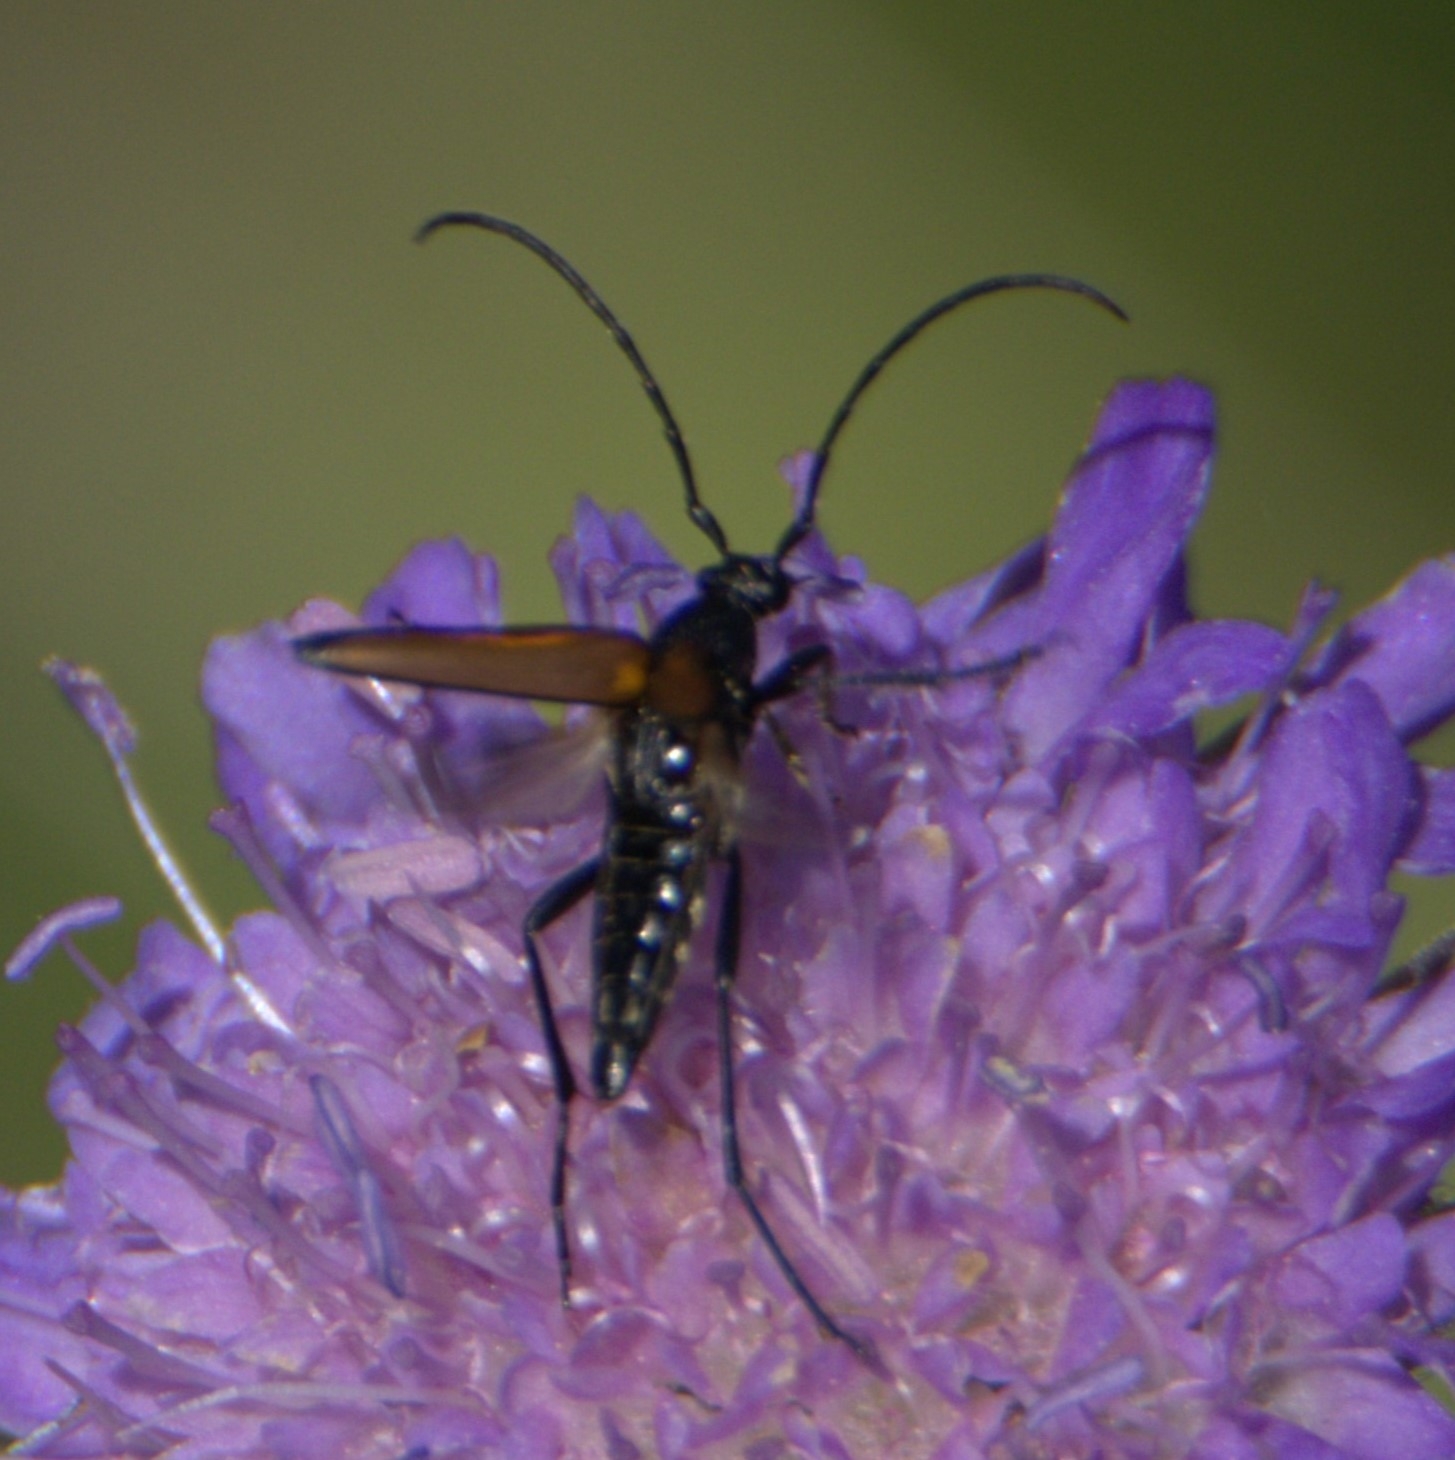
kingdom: Animalia
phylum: Arthropoda
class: Insecta
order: Coleoptera
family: Cerambycidae
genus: Stenurella
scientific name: Stenurella melanura
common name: Sortsømmet blomsterbuk
